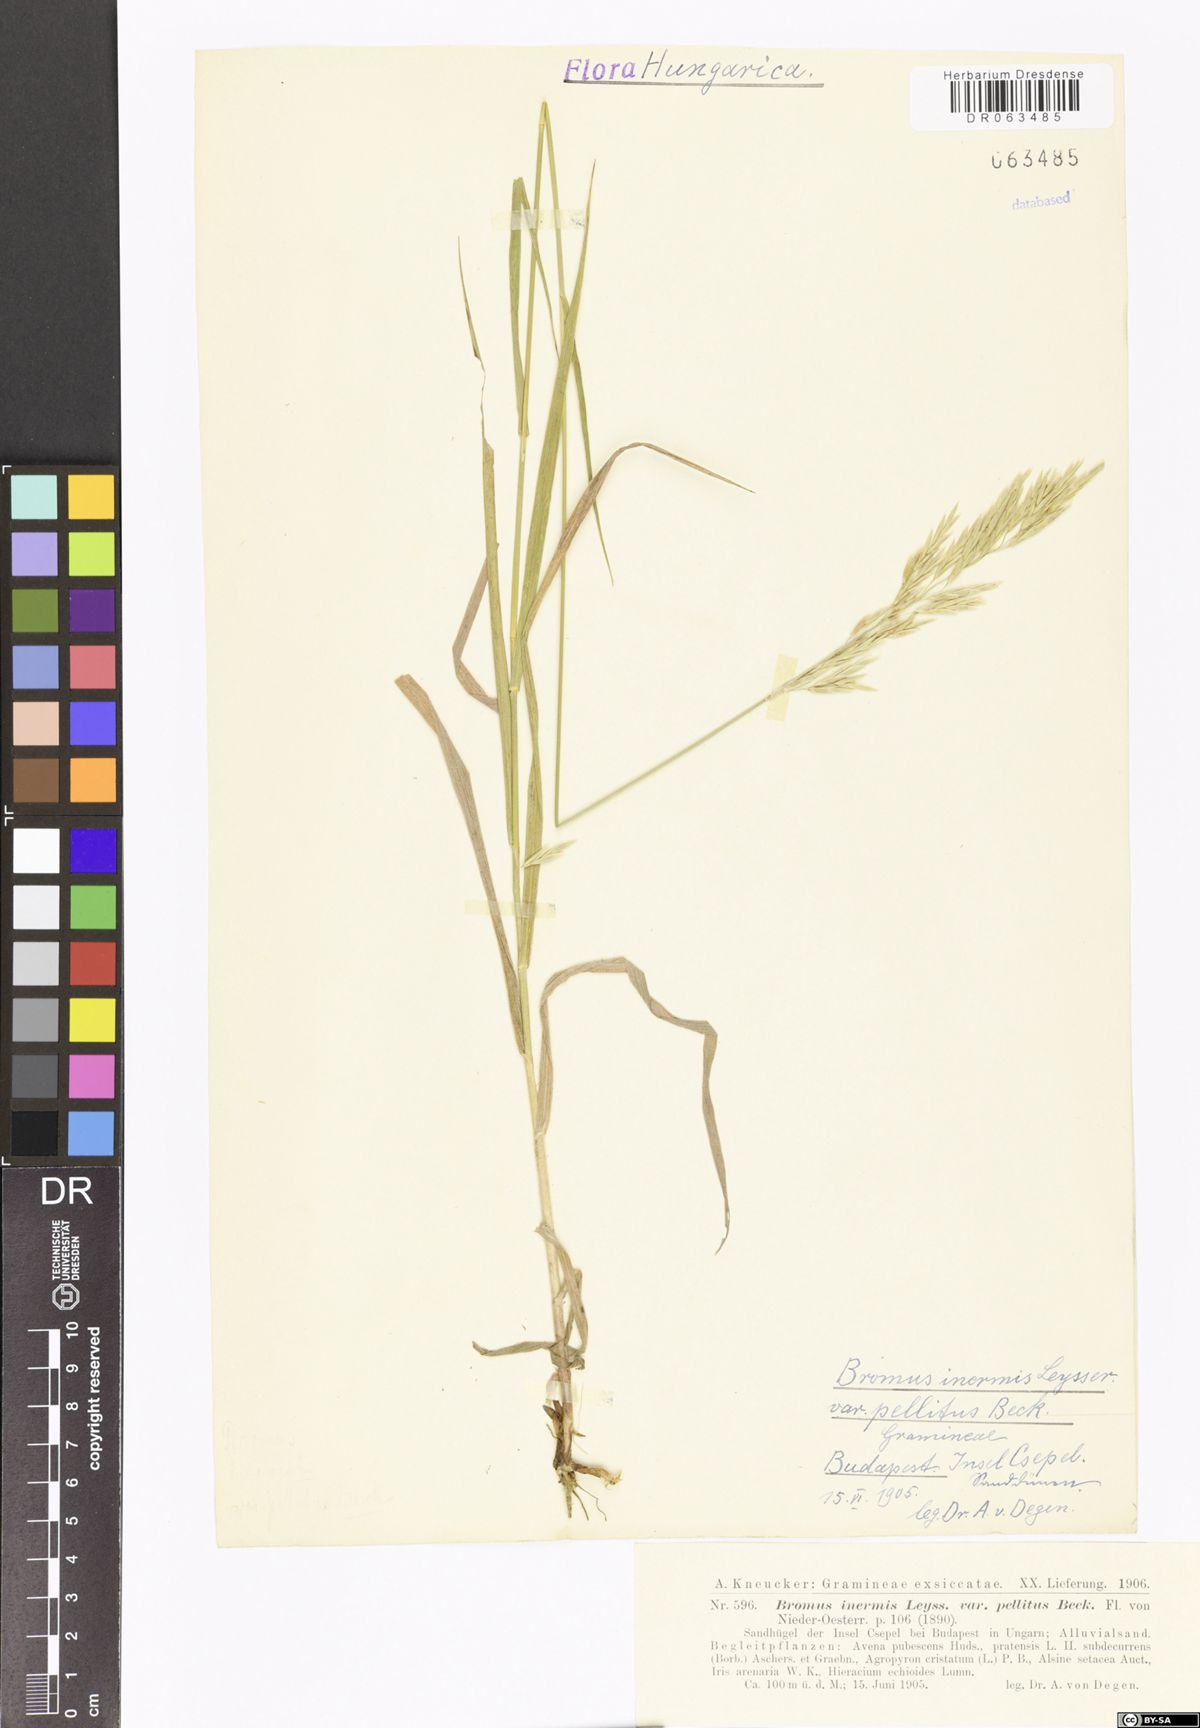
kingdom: Plantae
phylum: Tracheophyta
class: Liliopsida
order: Poales
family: Poaceae
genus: Bromus
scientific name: Bromus inermis
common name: Smooth brome
